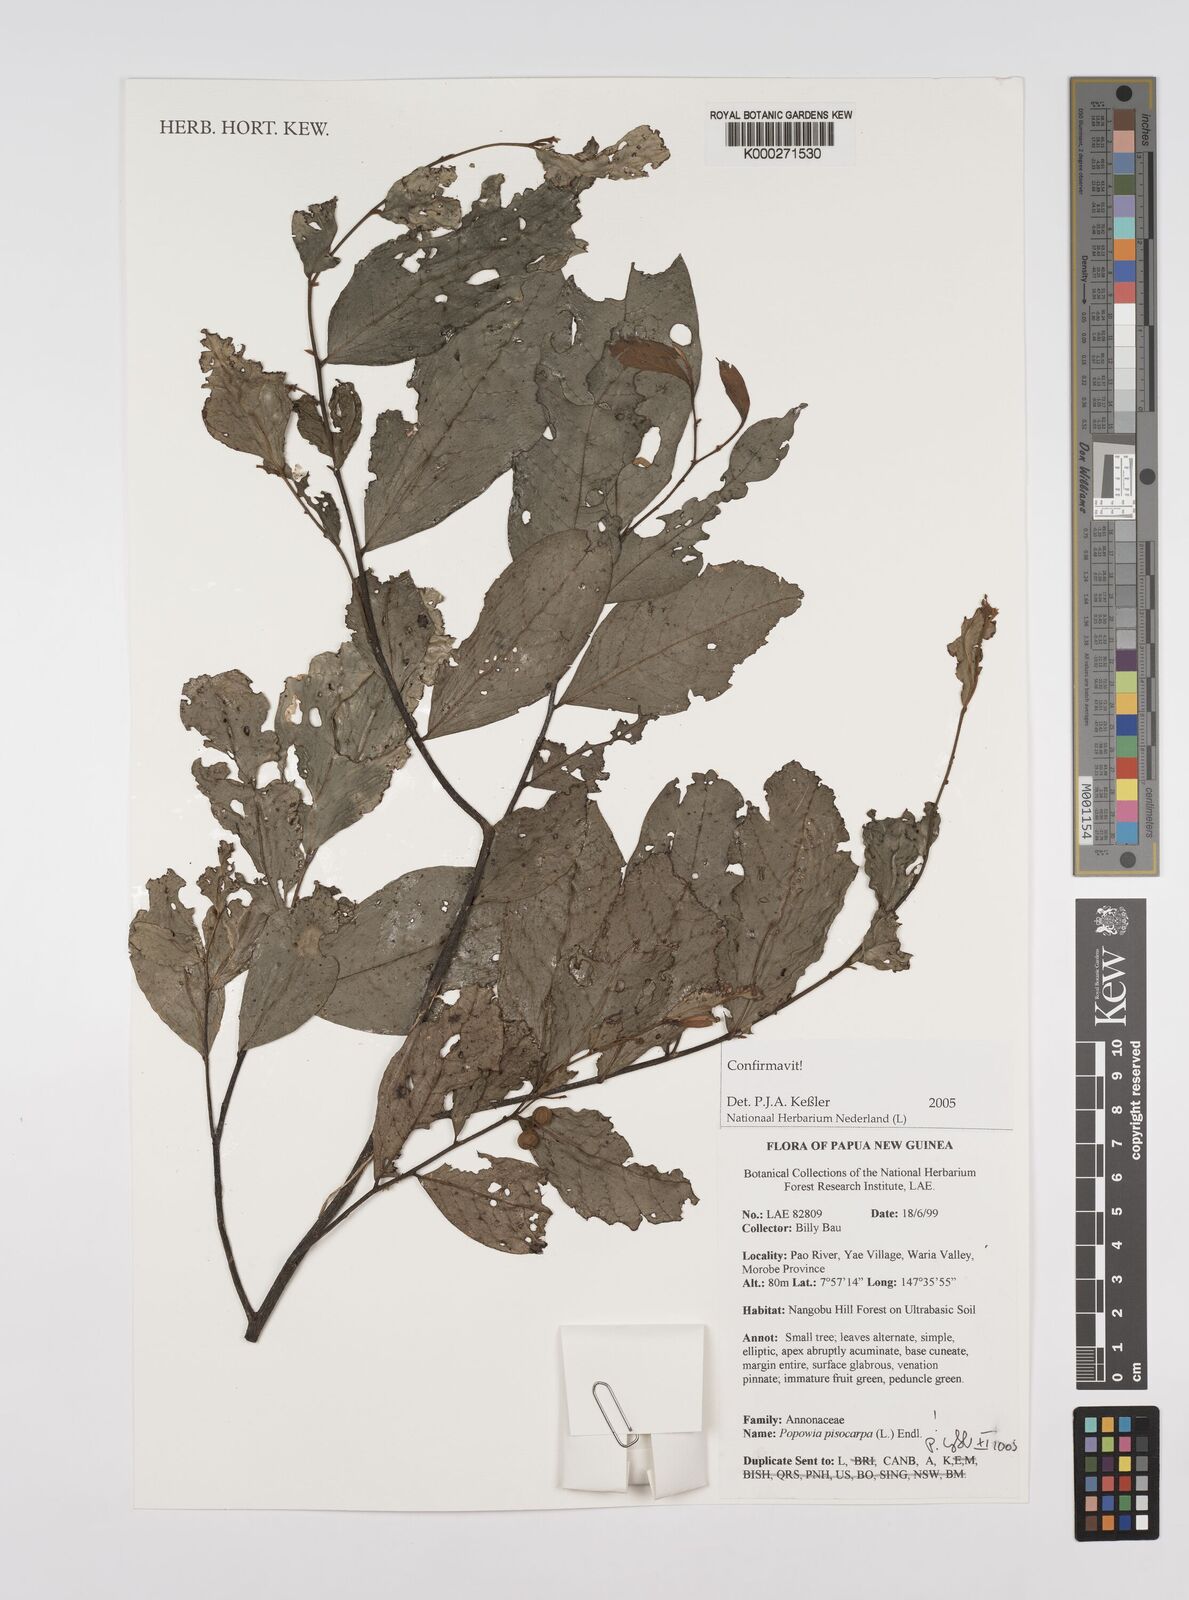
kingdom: Plantae
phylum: Tracheophyta
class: Magnoliopsida
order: Magnoliales
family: Annonaceae
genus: Popowia
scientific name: Popowia
